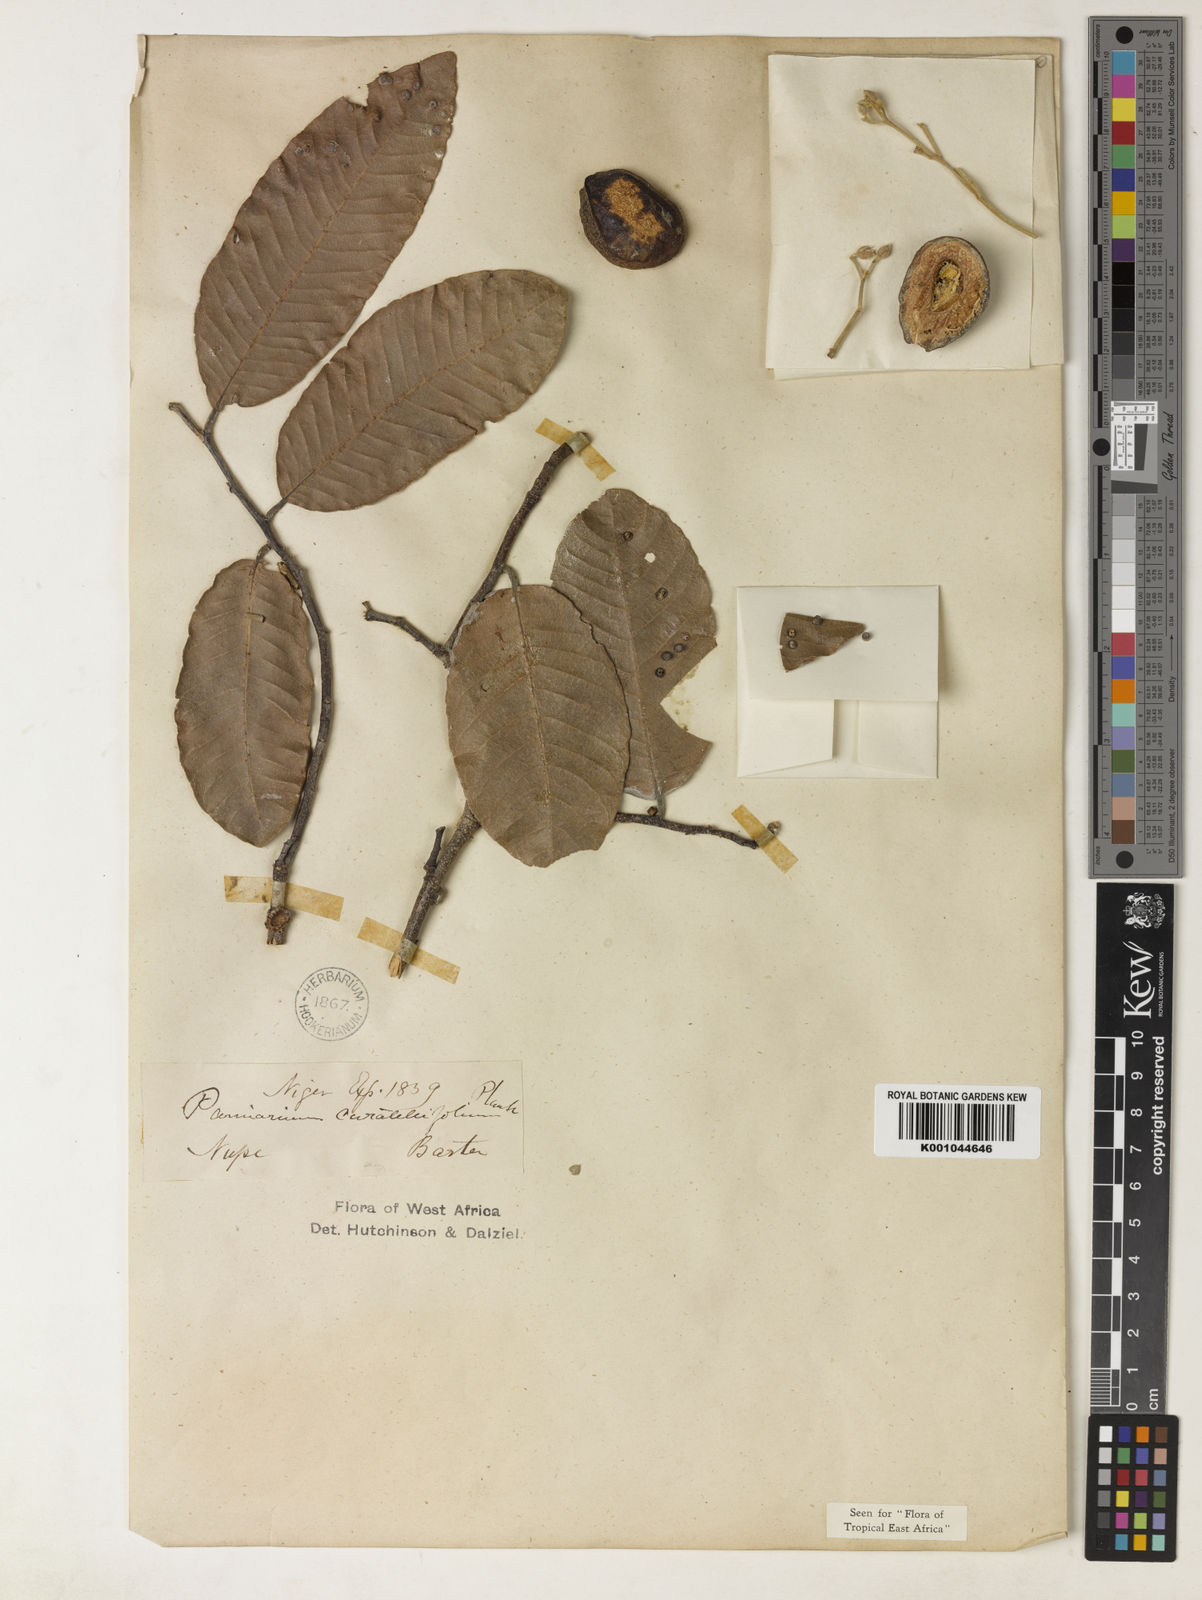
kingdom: Plantae
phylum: Tracheophyta
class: Magnoliopsida
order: Malpighiales
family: Chrysobalanaceae
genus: Parinari
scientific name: Parinari curatellifolia
